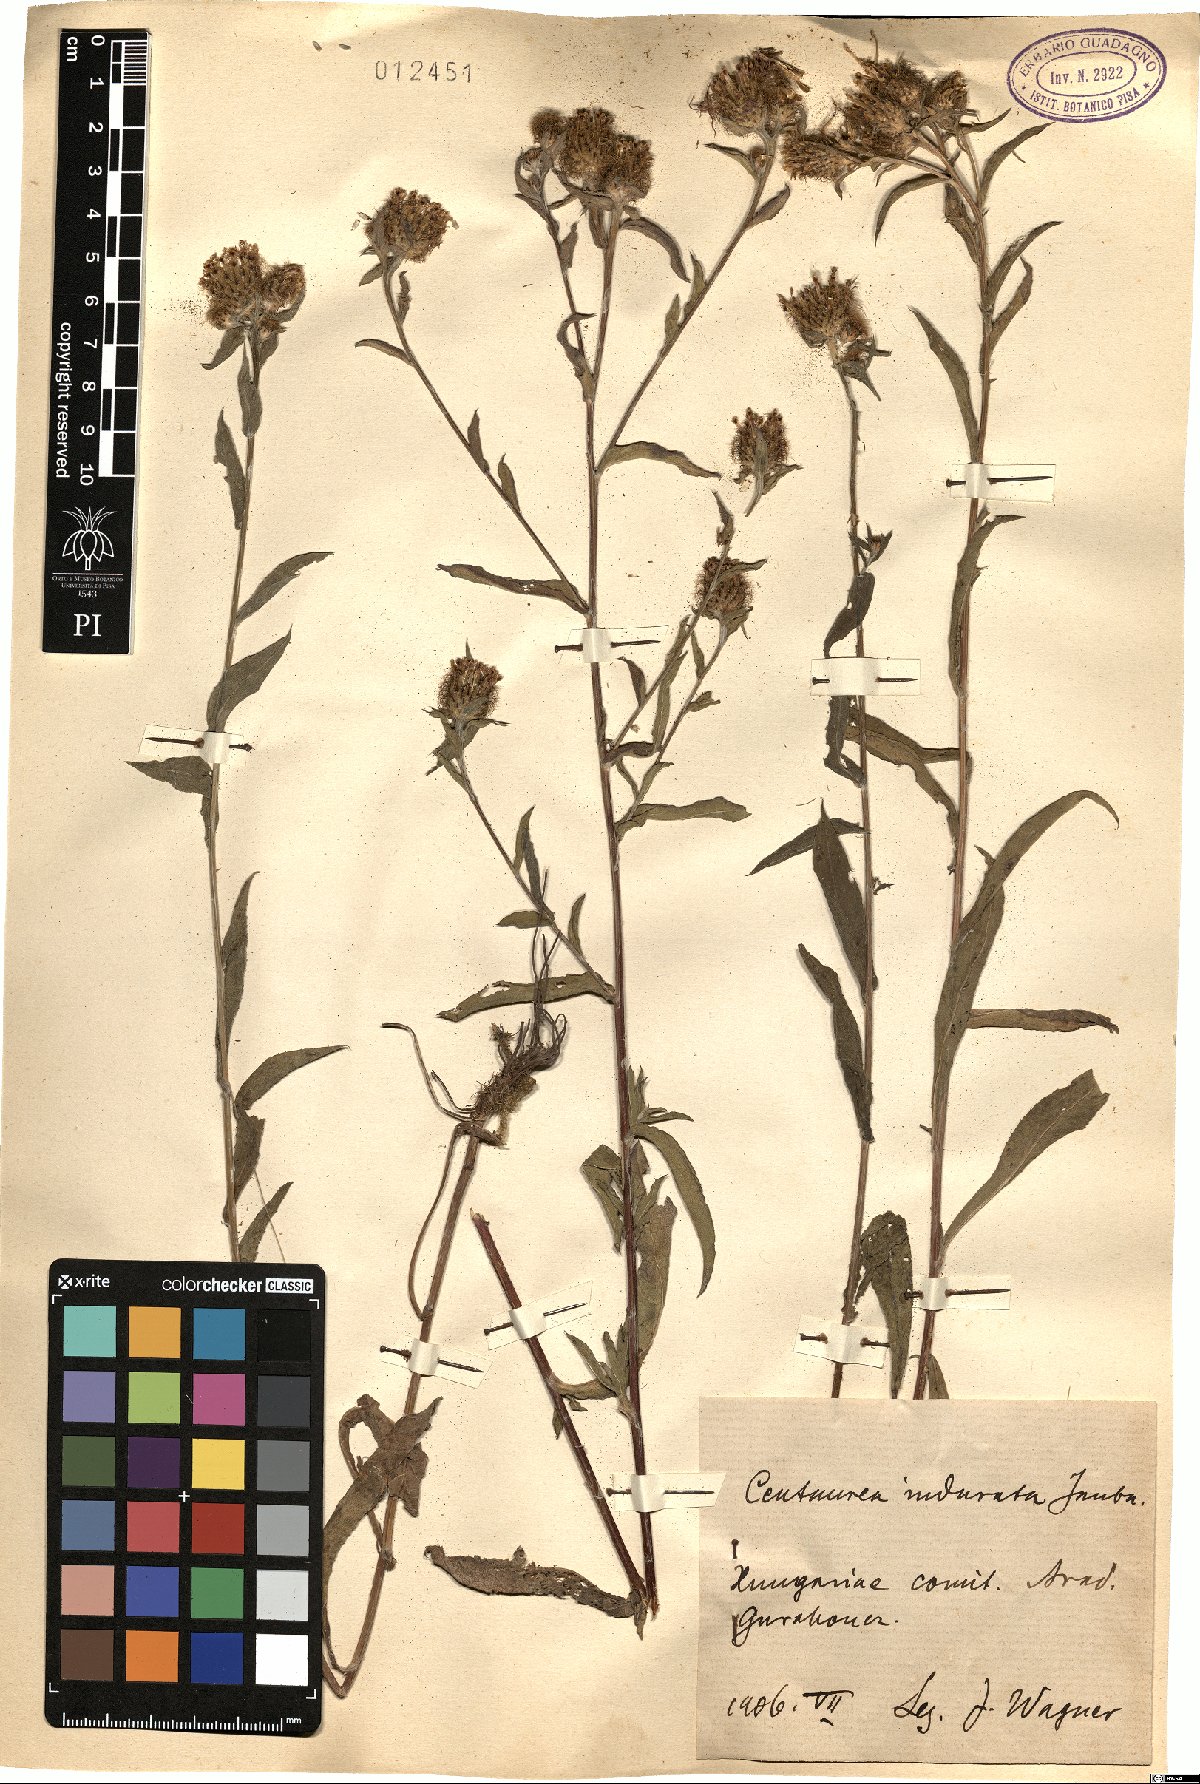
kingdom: Plantae
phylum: Tracheophyta
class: Magnoliopsida
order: Asterales
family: Asteraceae
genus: Centaurea
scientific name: Centaurea indurata
